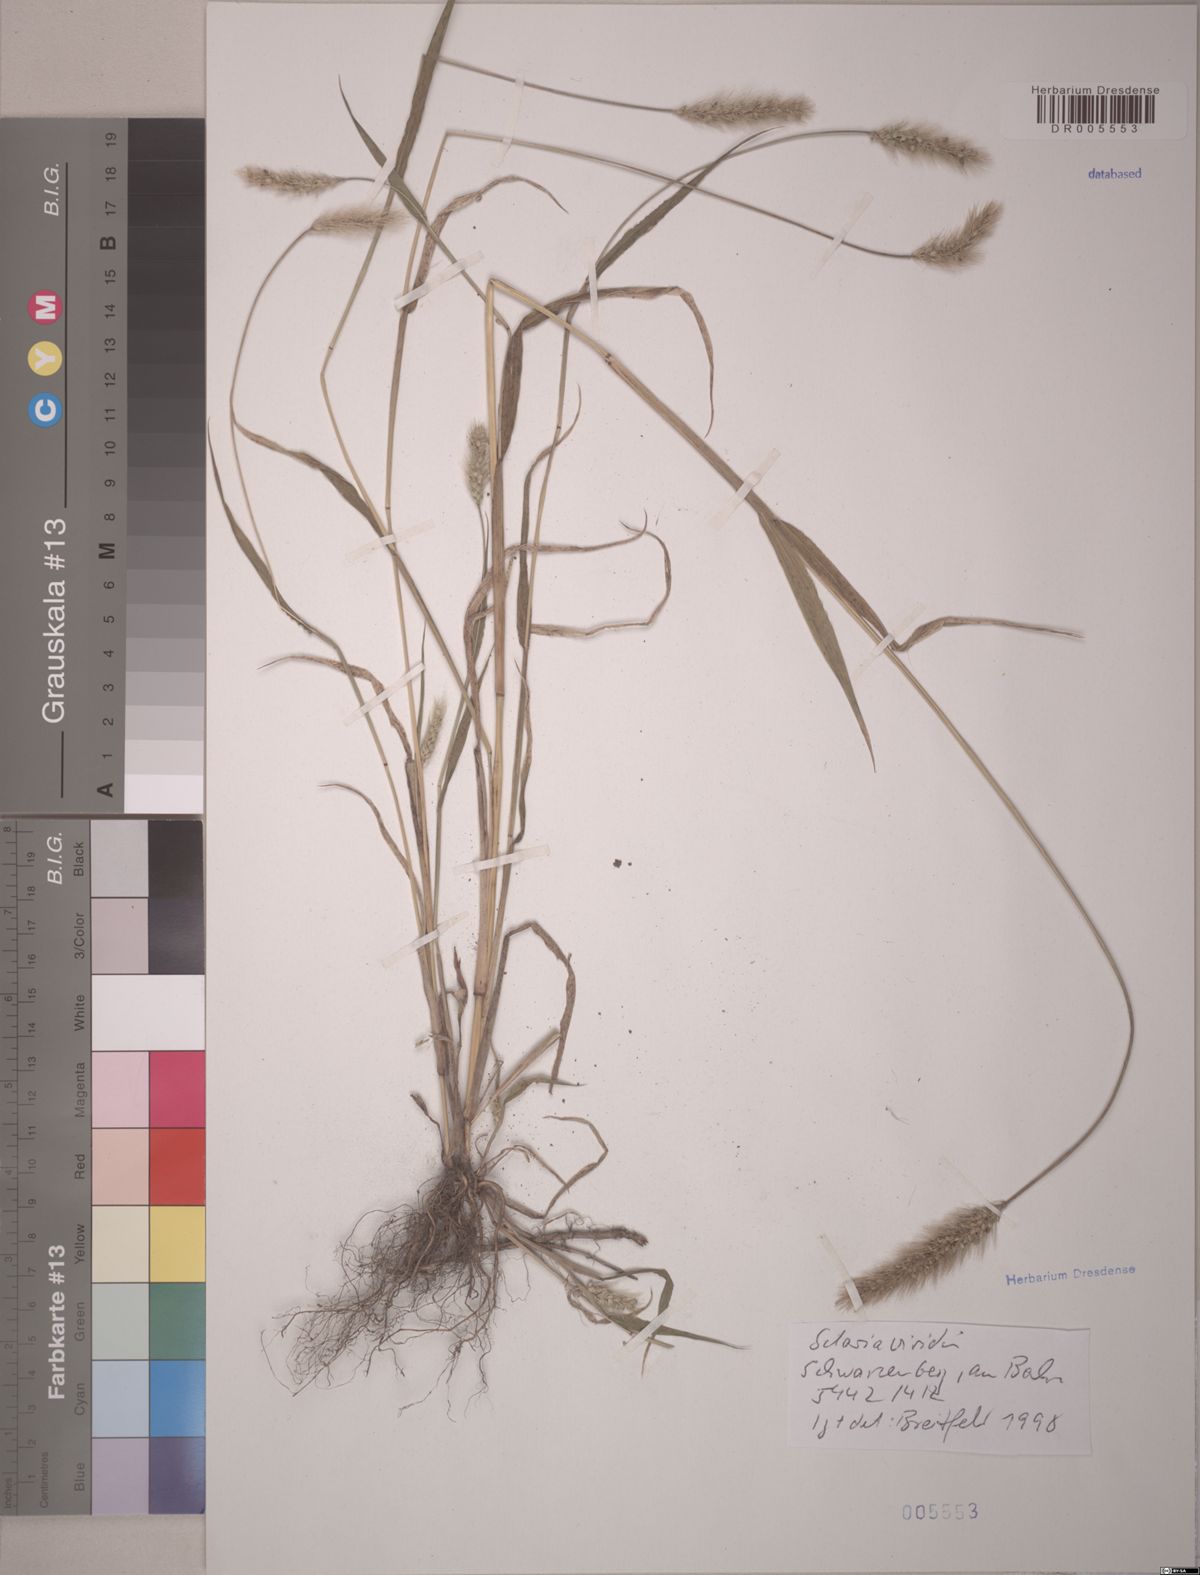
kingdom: Plantae
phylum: Tracheophyta
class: Liliopsida
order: Poales
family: Poaceae
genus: Setaria
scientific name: Setaria viridis
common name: Green bristlegrass
